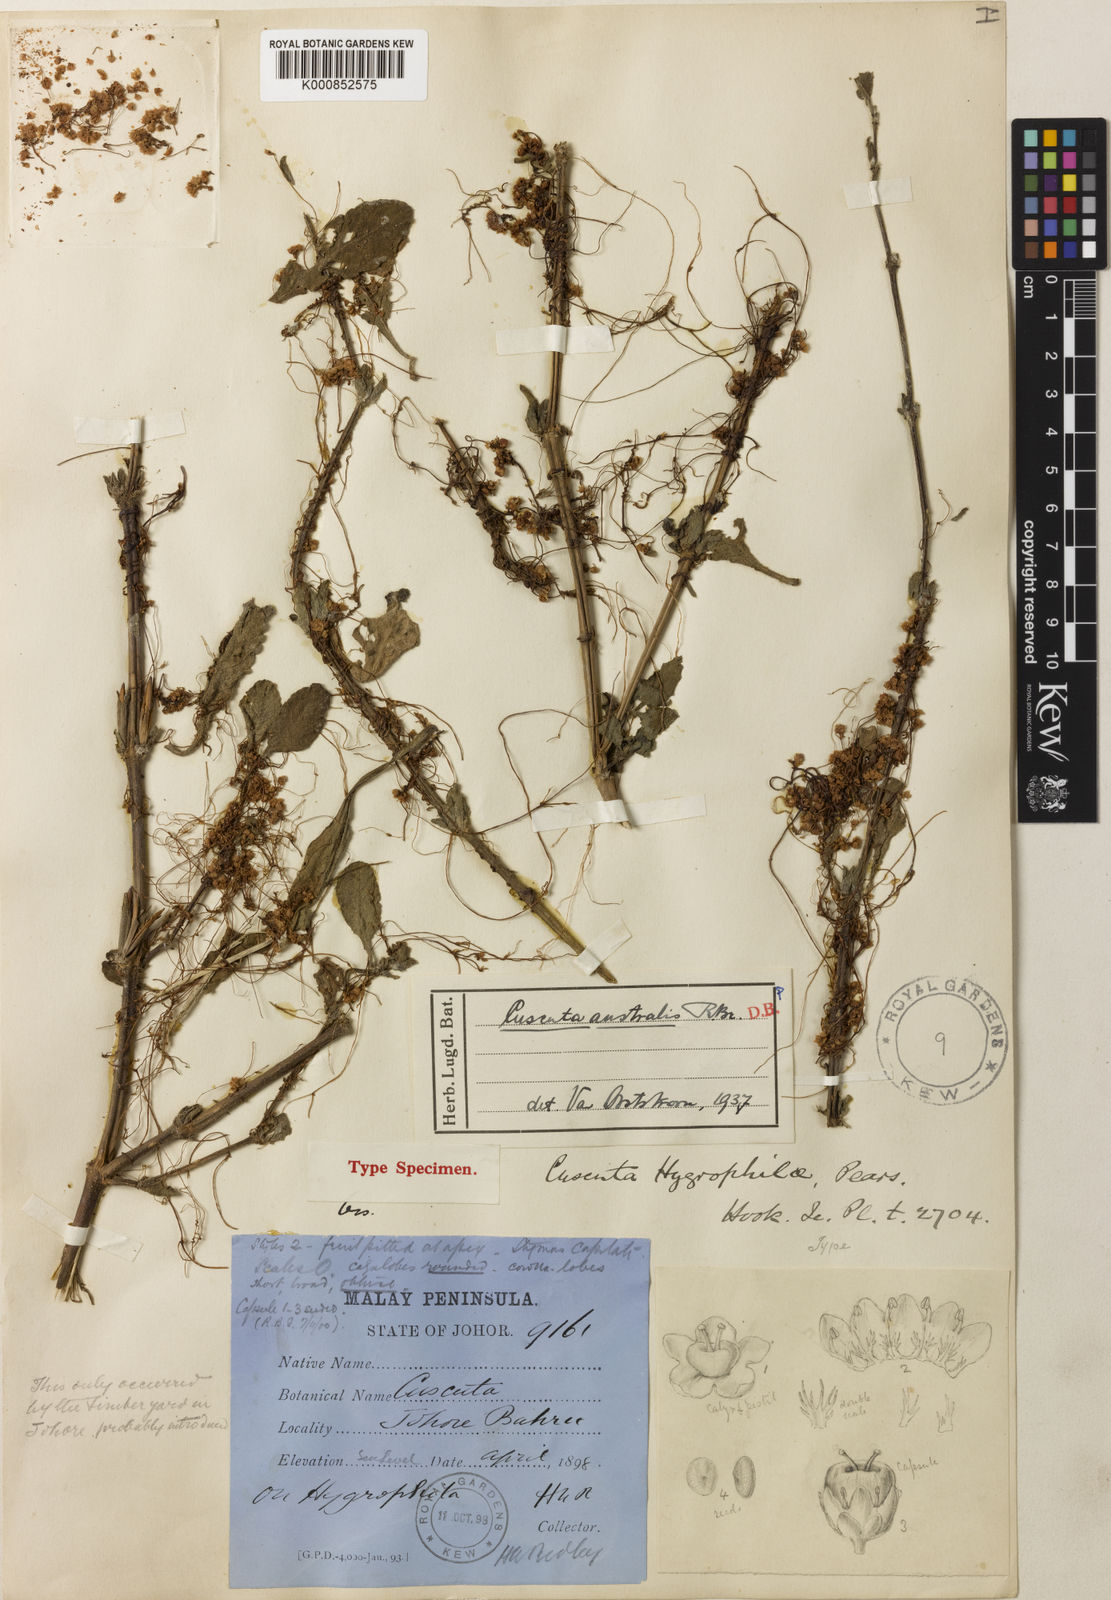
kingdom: Plantae
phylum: Tracheophyta
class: Magnoliopsida
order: Solanales
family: Convolvulaceae
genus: Cuscuta
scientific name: Cuscuta australis
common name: Australian dodder
